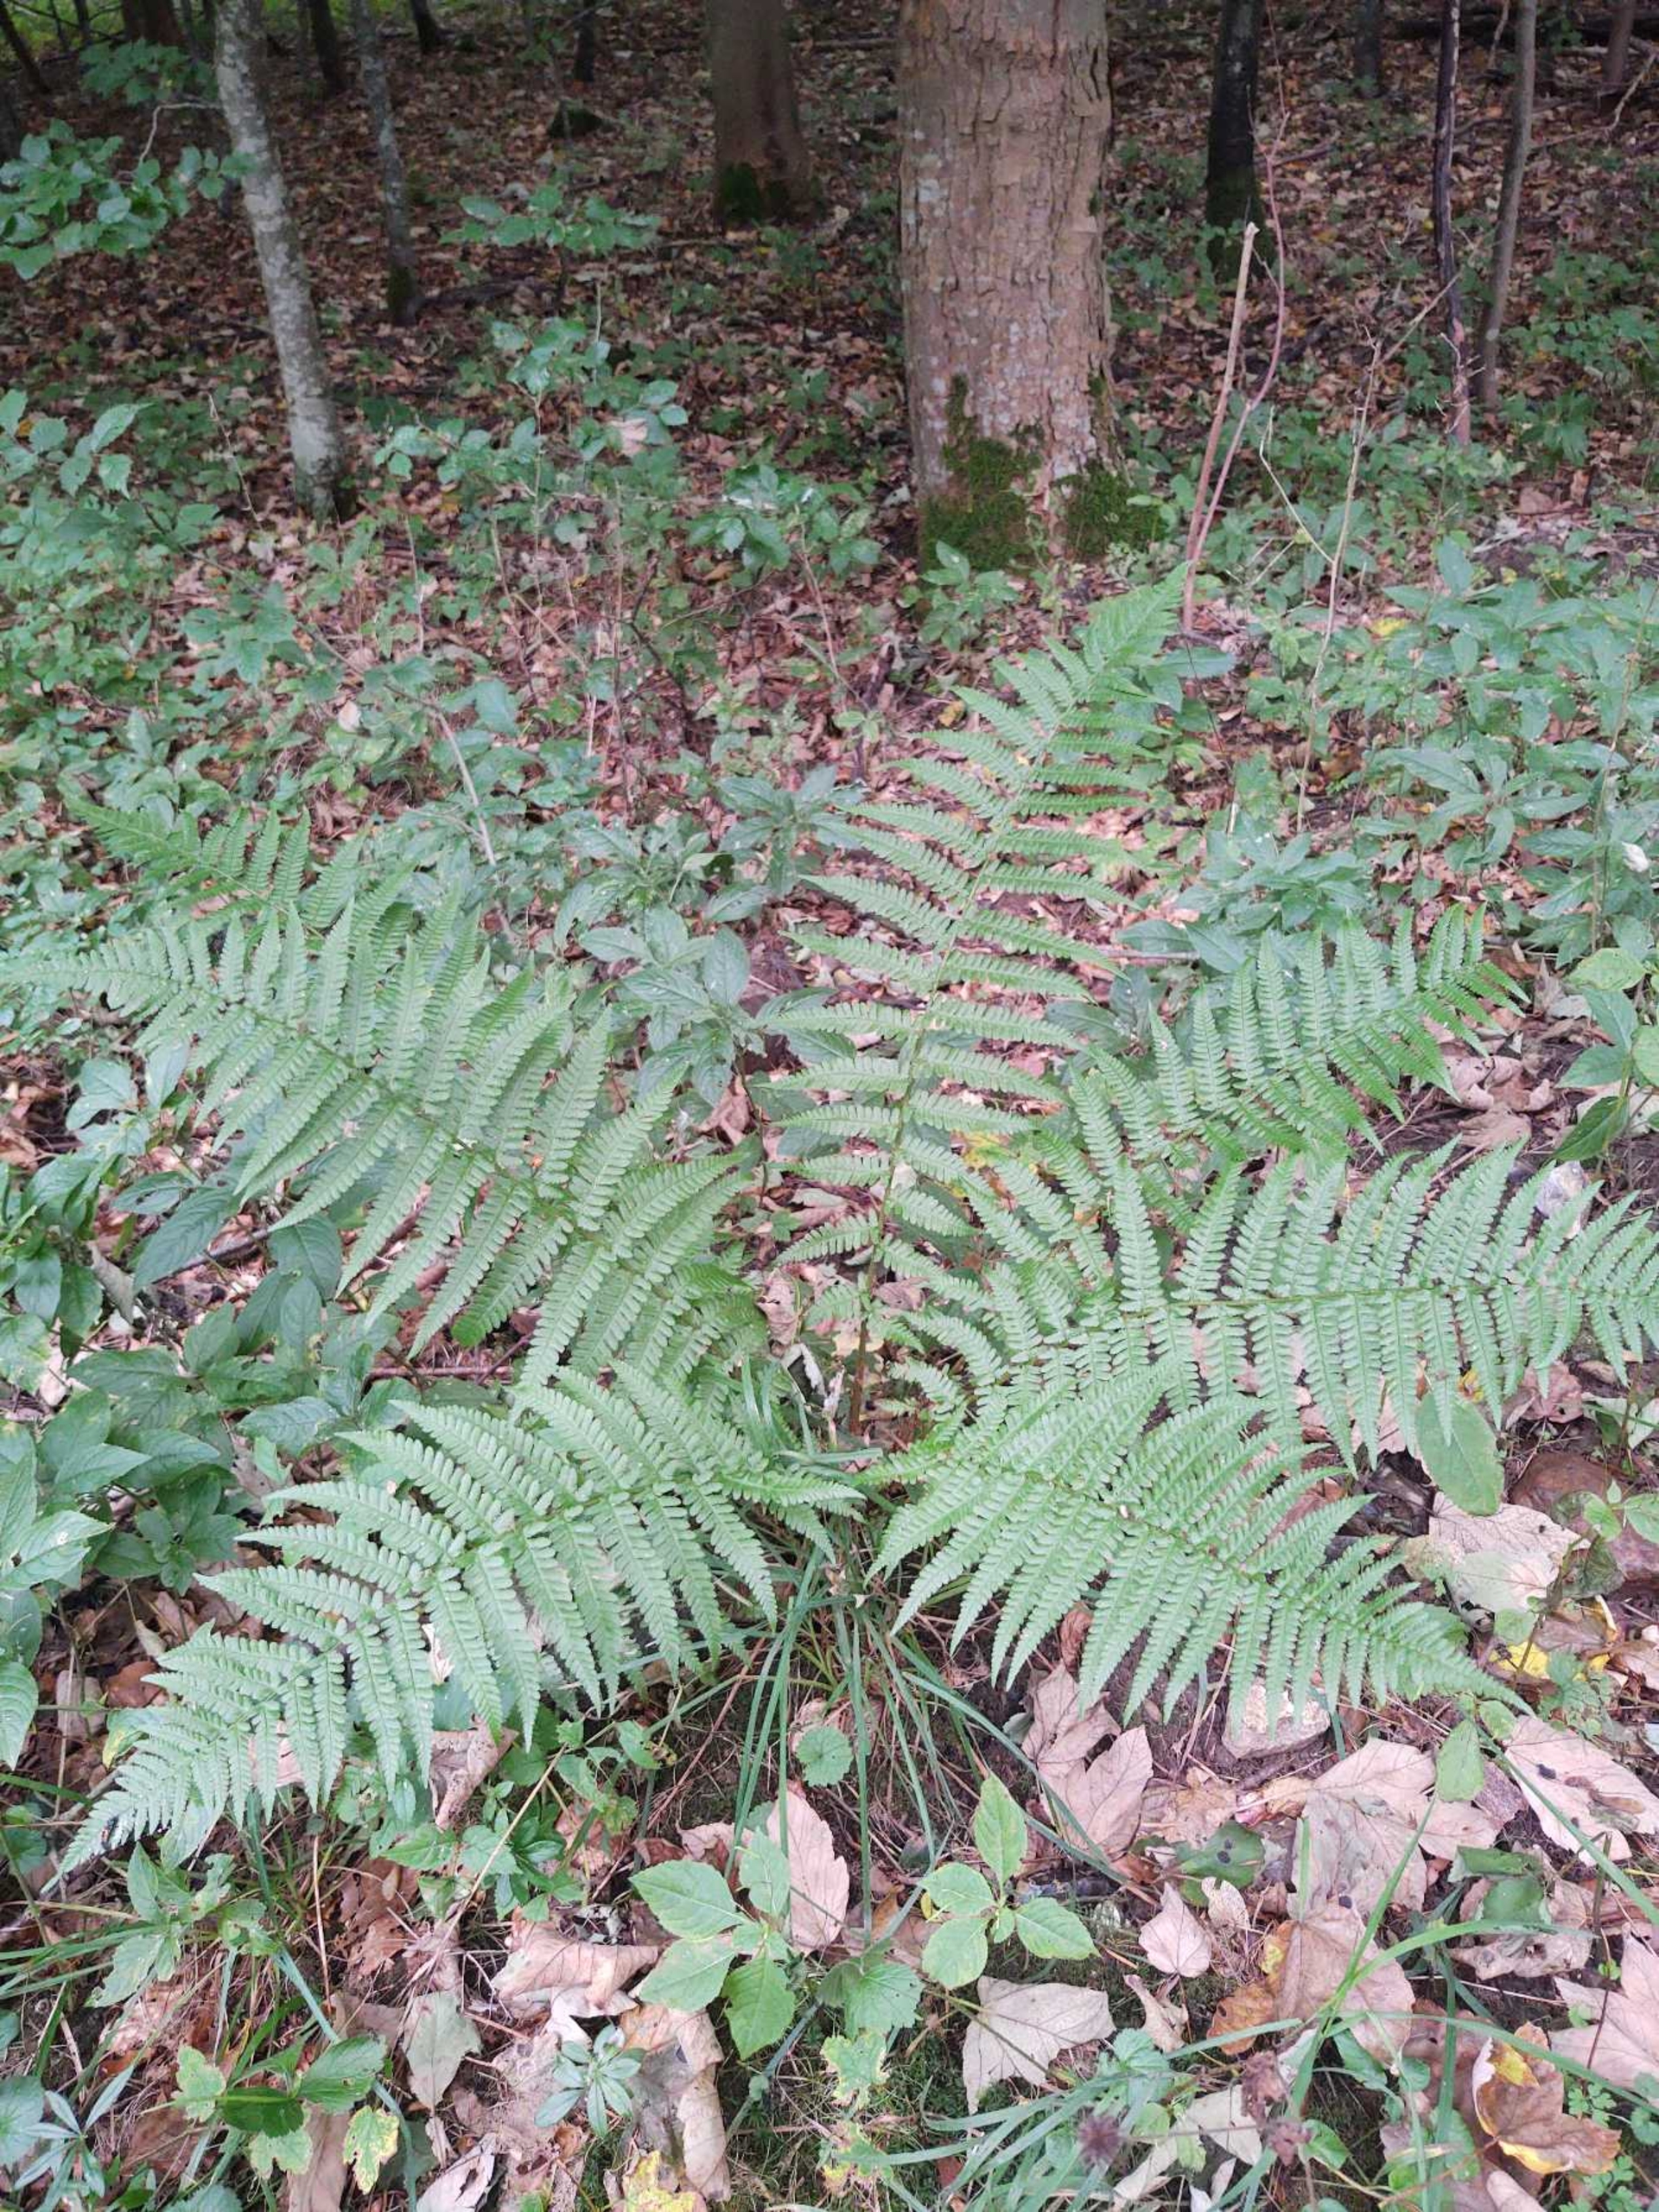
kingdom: Plantae
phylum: Tracheophyta
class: Polypodiopsida
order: Polypodiales
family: Dryopteridaceae
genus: Dryopteris
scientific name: Dryopteris filix-mas
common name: Almindelig mangeløv
